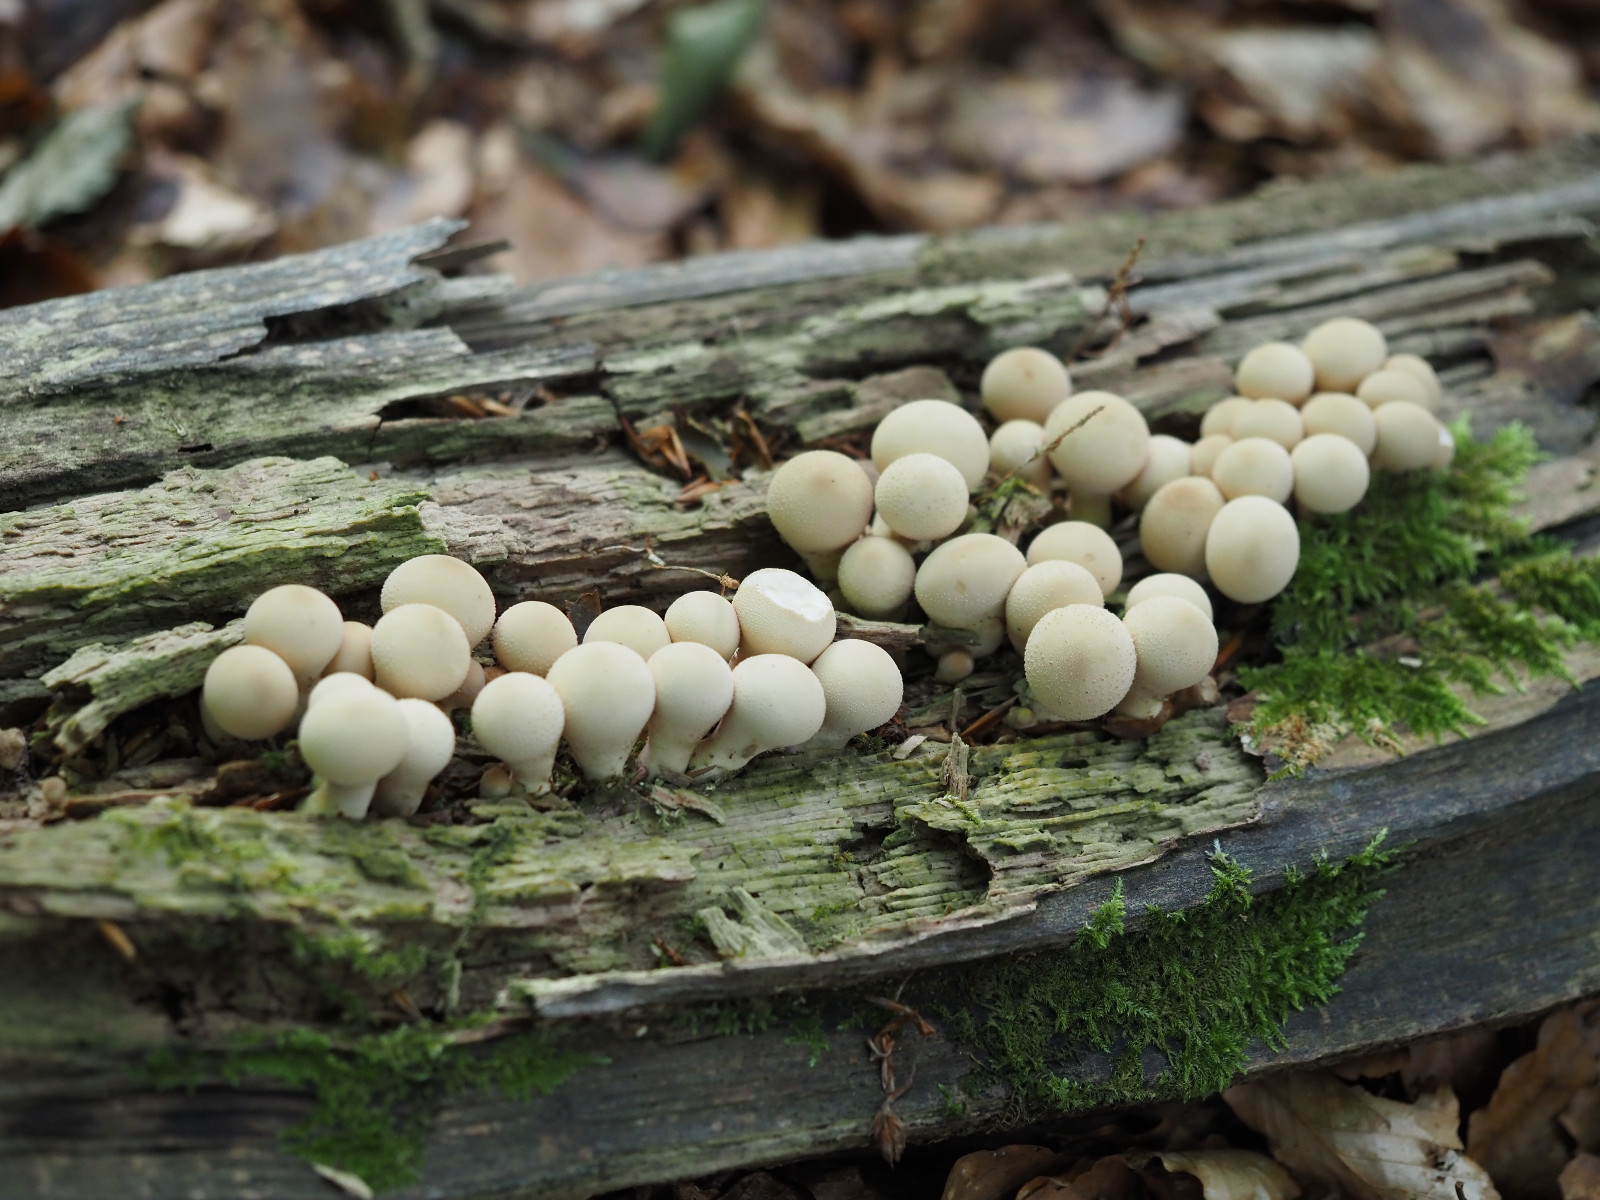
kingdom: Fungi
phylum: Basidiomycota
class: Agaricomycetes
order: Agaricales
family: Lycoperdaceae
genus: Apioperdon
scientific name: Apioperdon pyriforme
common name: pære-støvbold
